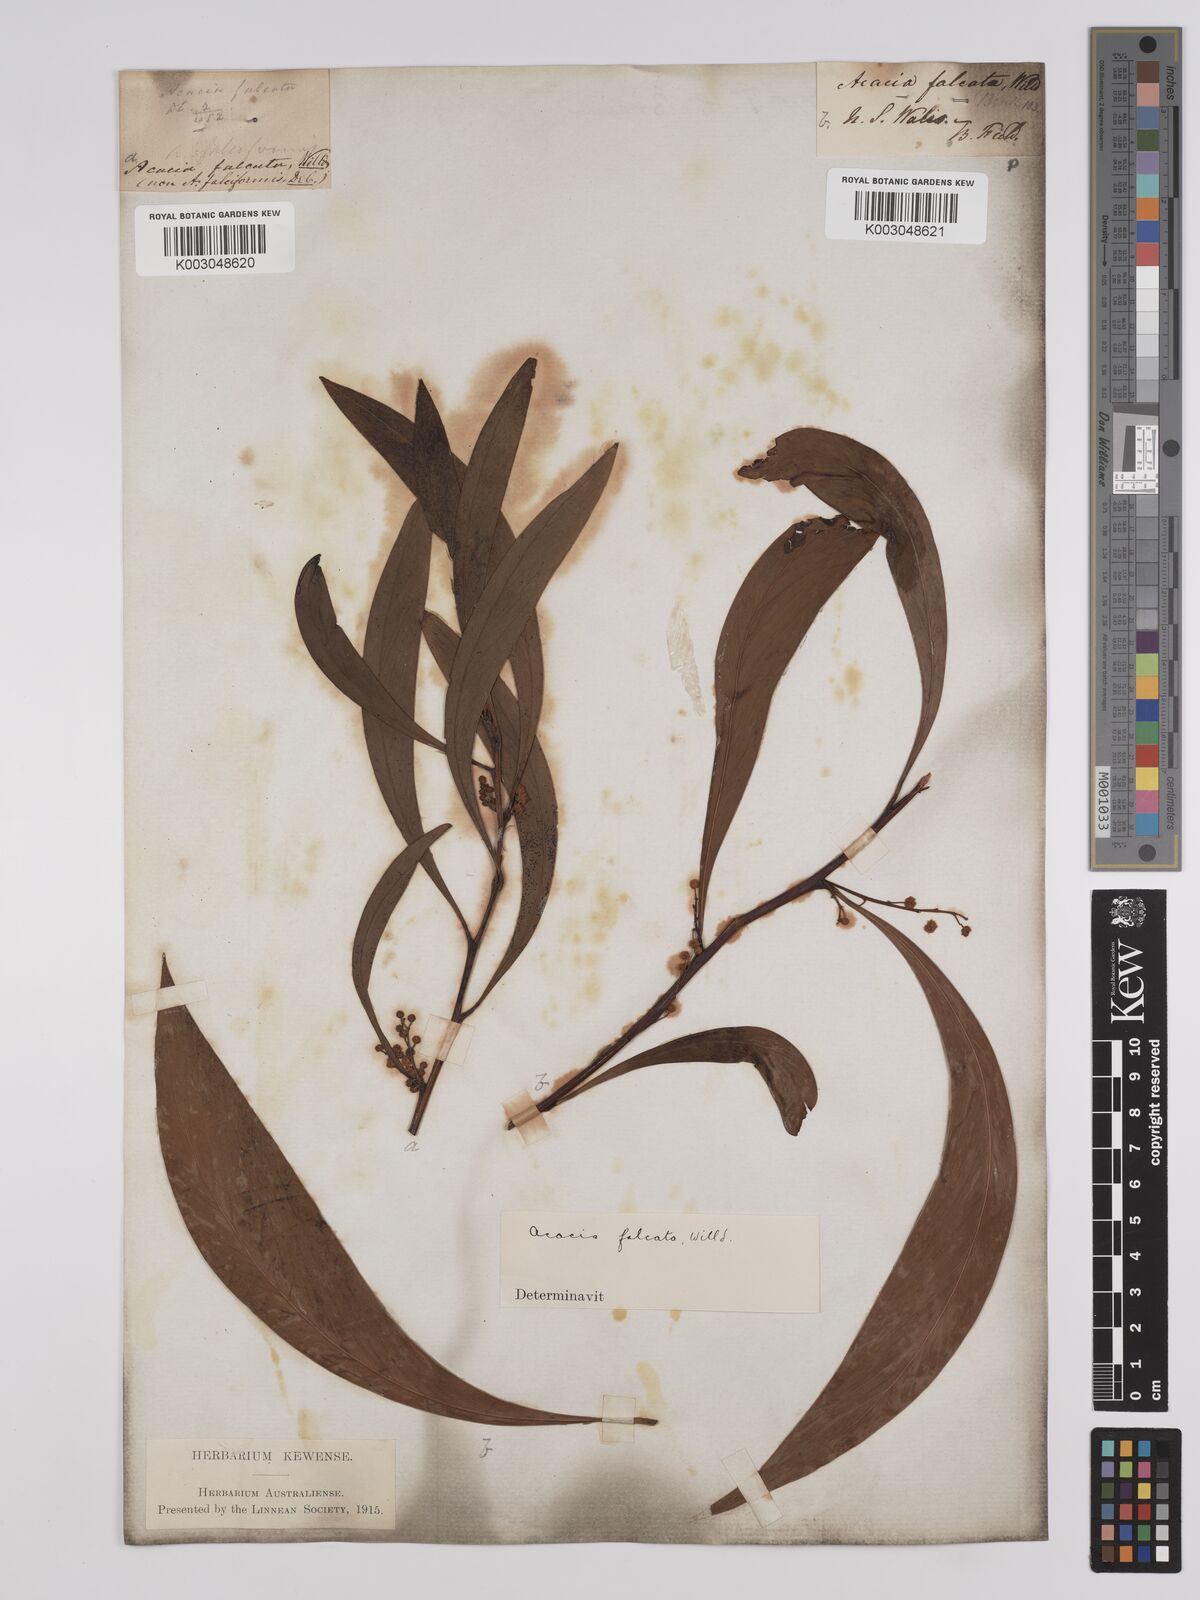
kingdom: Plantae
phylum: Tracheophyta
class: Magnoliopsida
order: Fabales
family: Fabaceae
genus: Acacia
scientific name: Acacia falcata
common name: Burra acacia
